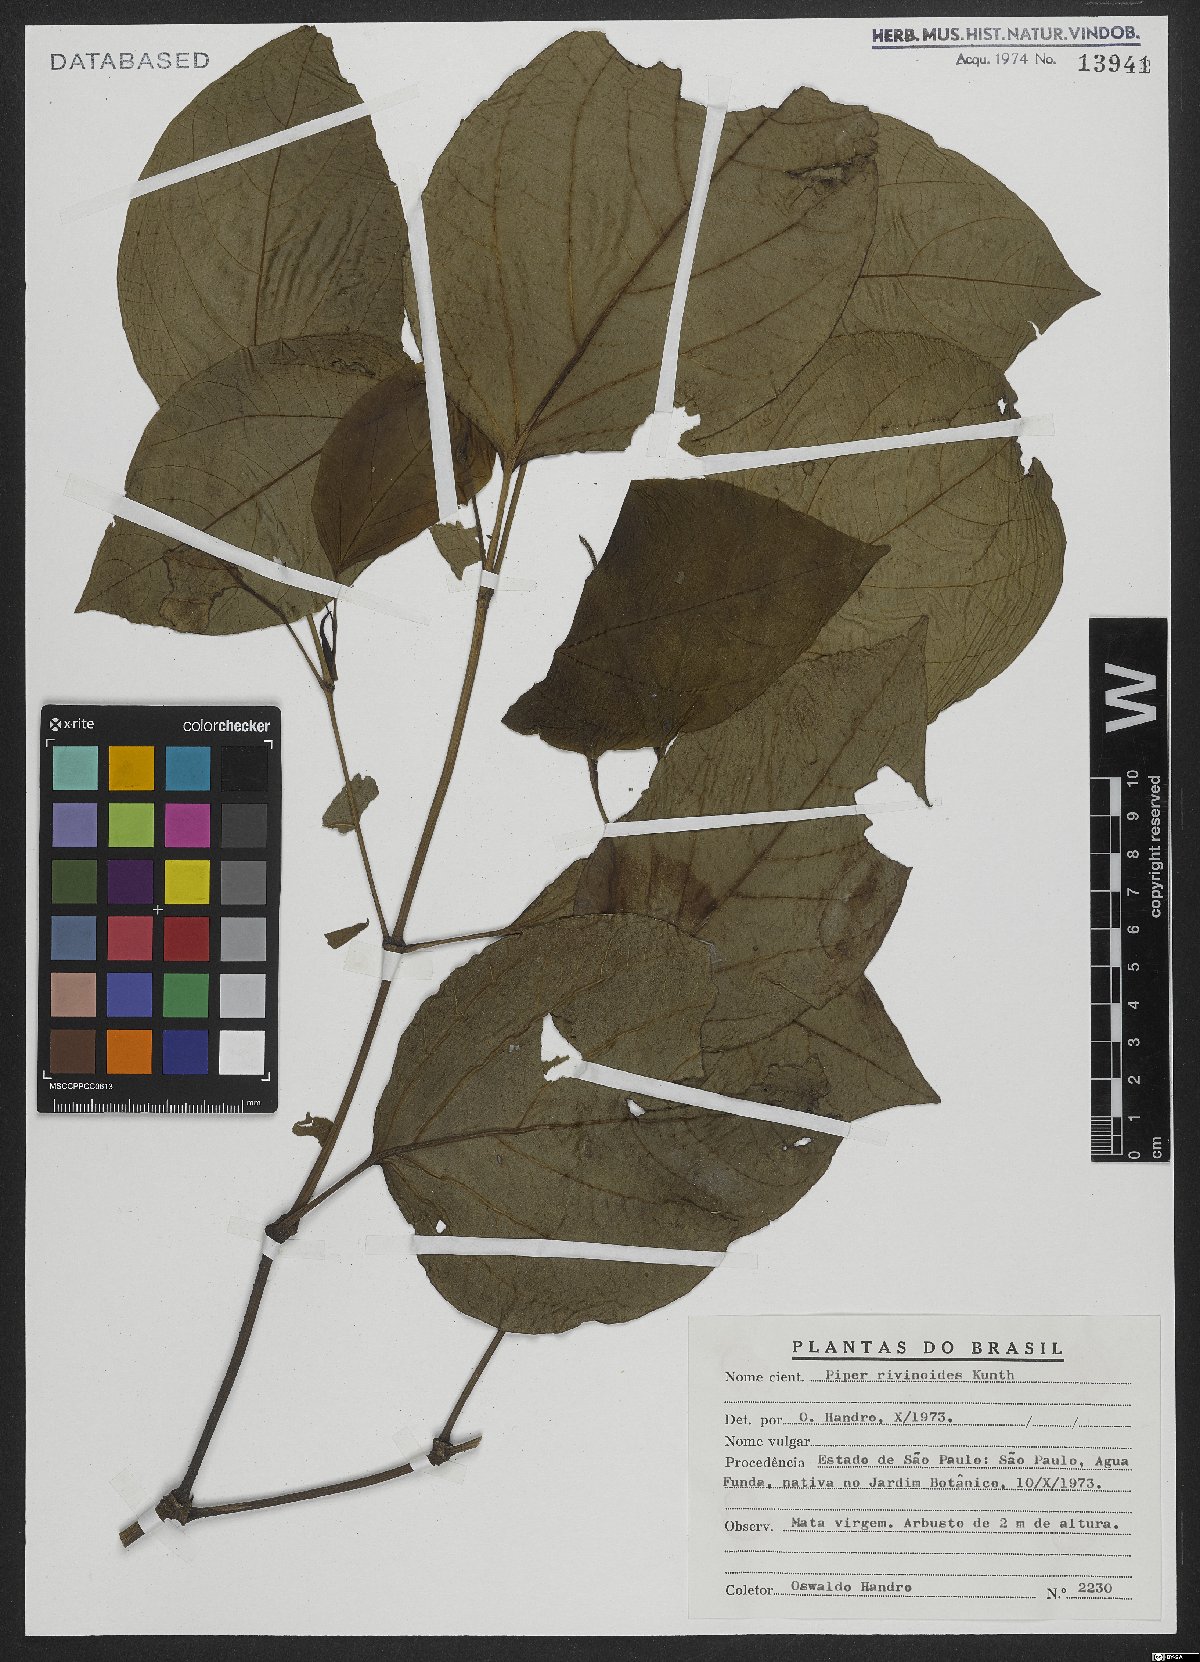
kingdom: Plantae
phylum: Tracheophyta
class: Magnoliopsida
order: Piperales
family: Piperaceae
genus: Piper
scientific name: Piper rivinoides
